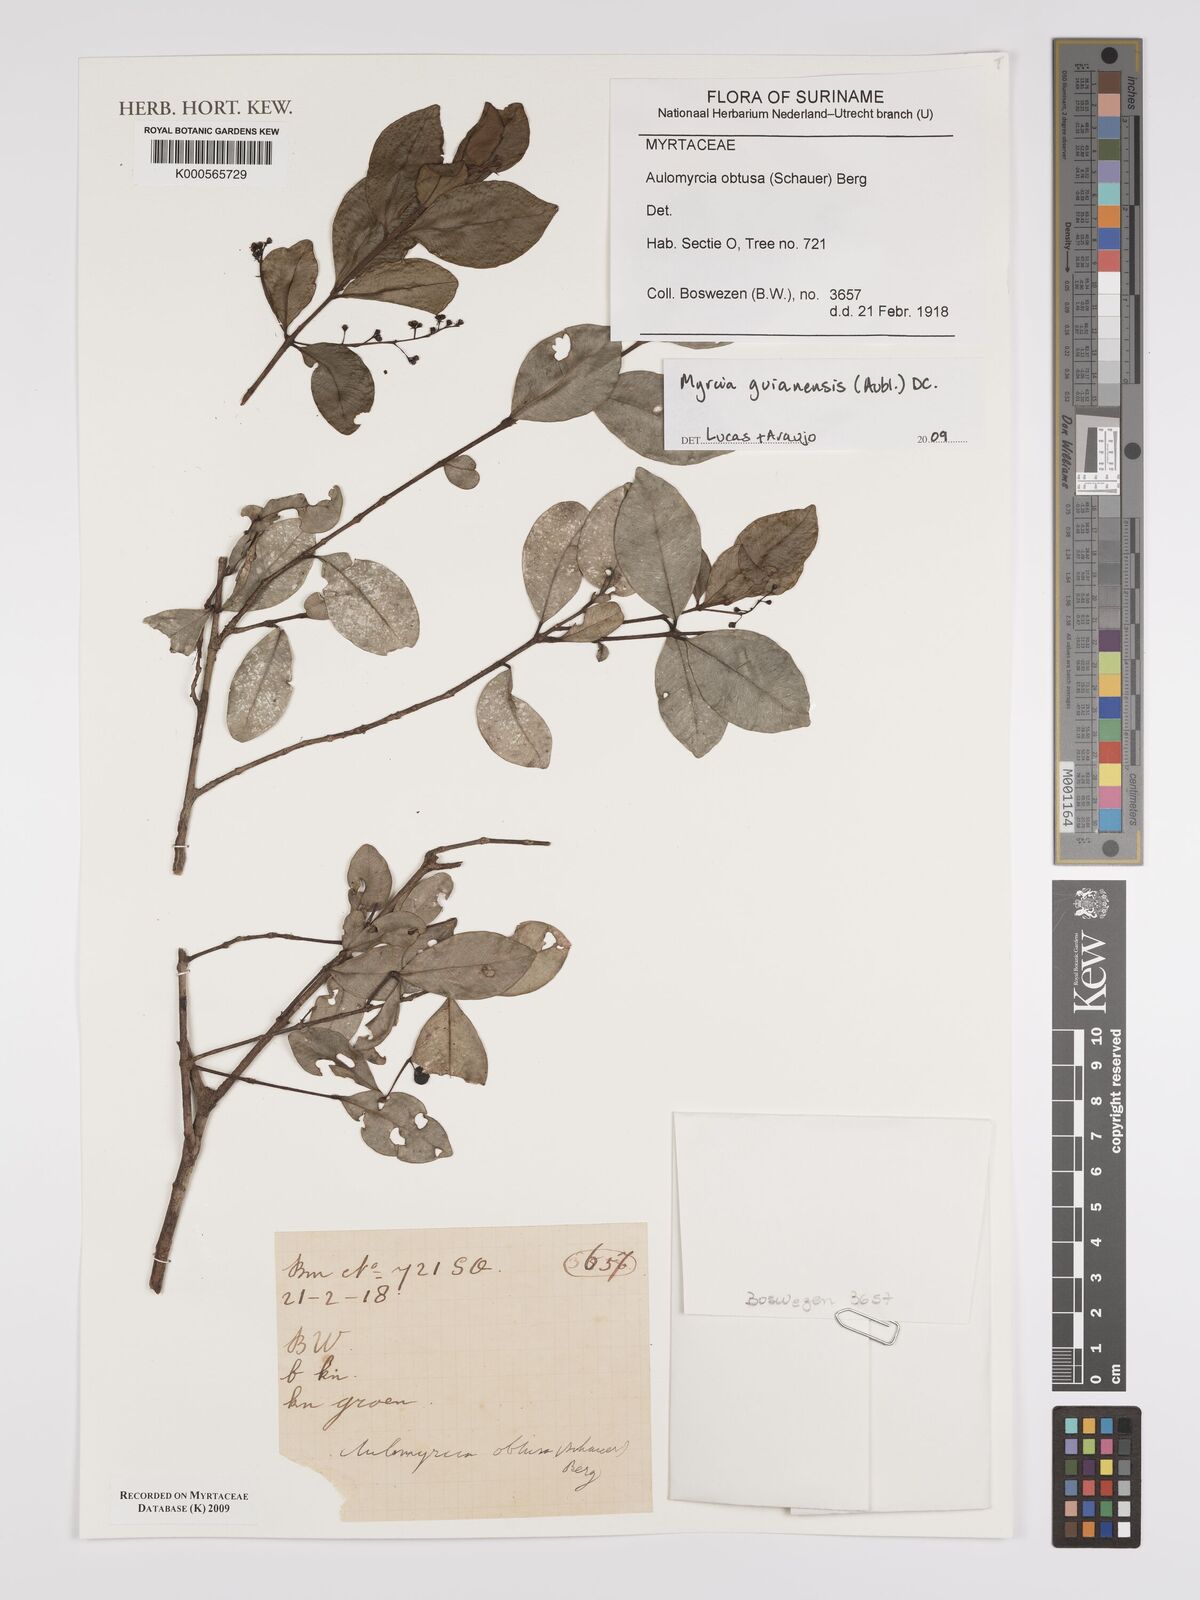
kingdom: Plantae
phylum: Tracheophyta
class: Magnoliopsida
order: Myrtales
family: Myrtaceae
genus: Myrcia
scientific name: Myrcia guianensis
